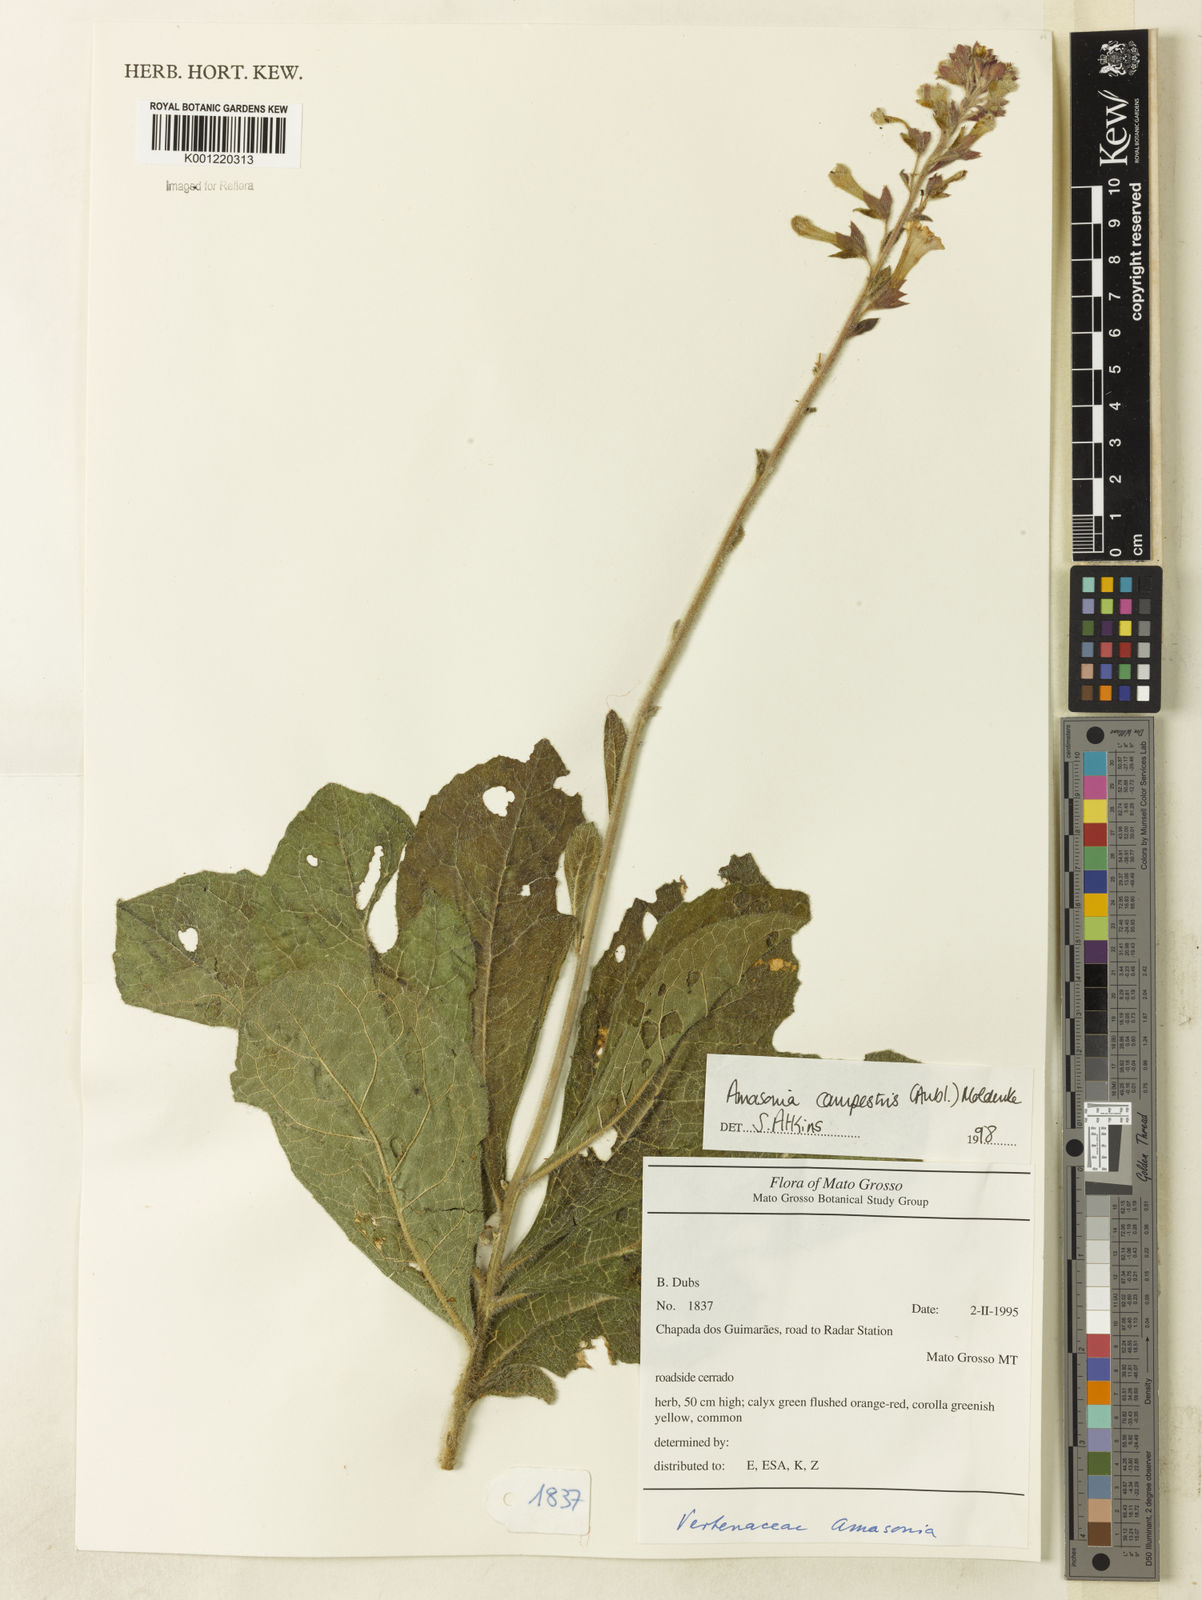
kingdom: Plantae
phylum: Tracheophyta
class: Magnoliopsida
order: Lamiales
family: Lamiaceae
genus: Amasonia
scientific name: Amasonia campestris
